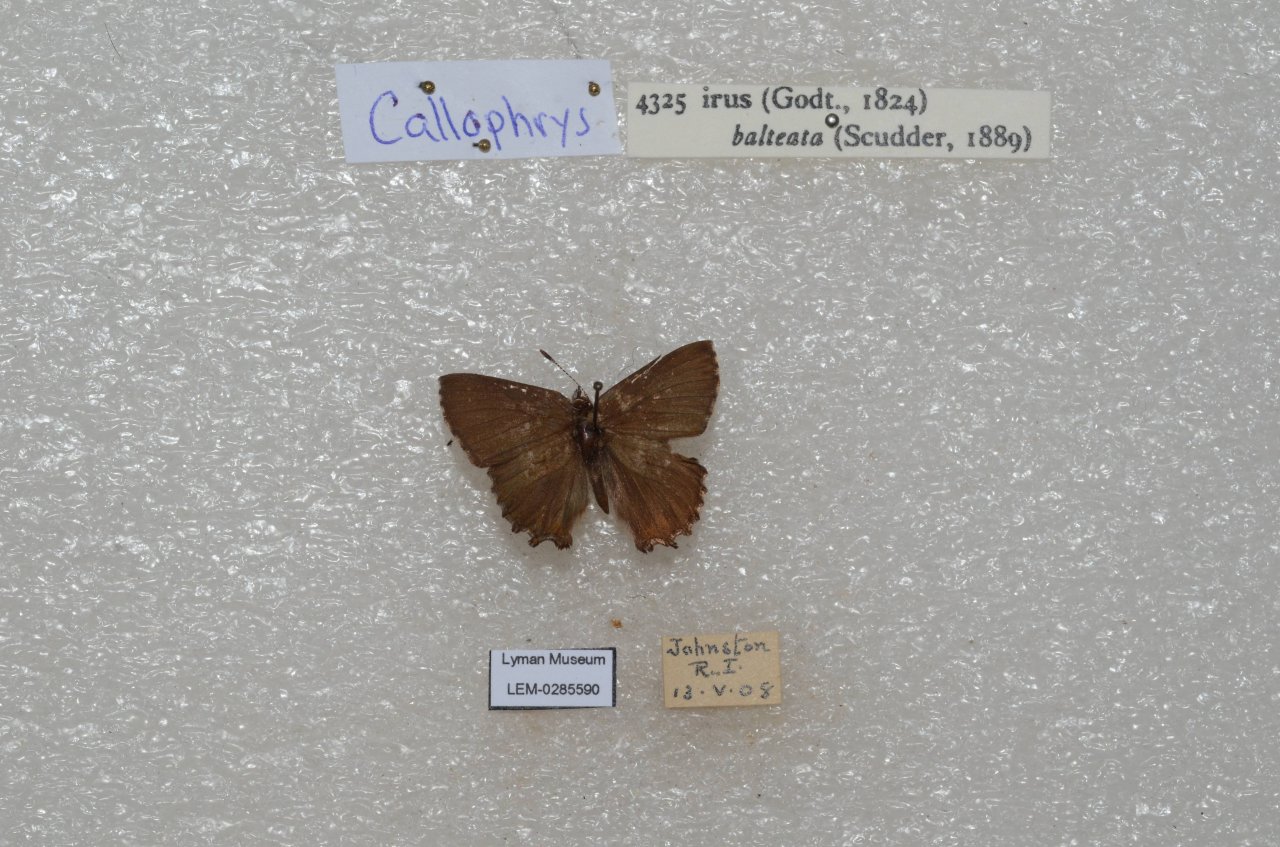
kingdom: Animalia
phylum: Arthropoda
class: Insecta
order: Lepidoptera
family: Lycaenidae
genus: Thecla
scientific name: Thecla irus
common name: Frosted Elfin
